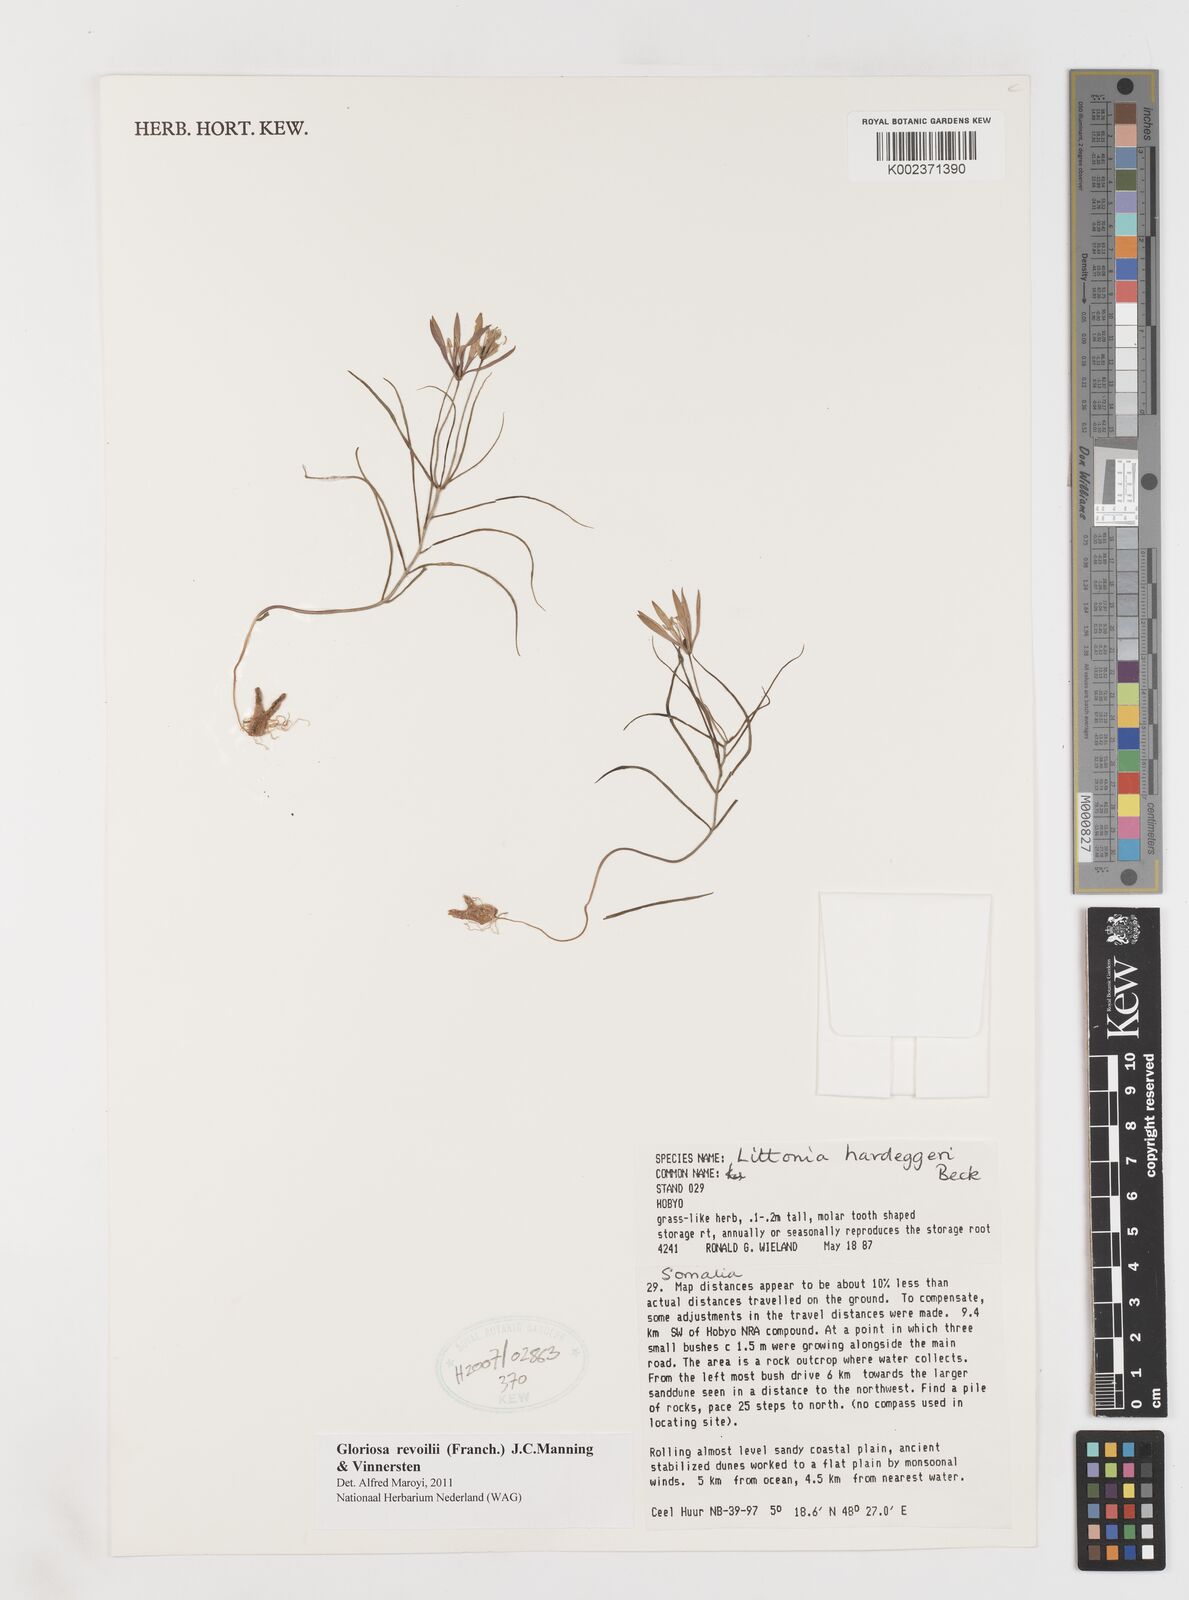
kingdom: Plantae
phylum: Tracheophyta
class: Liliopsida
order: Liliales
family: Colchicaceae
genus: Gloriosa
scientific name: Gloriosa revoilii
